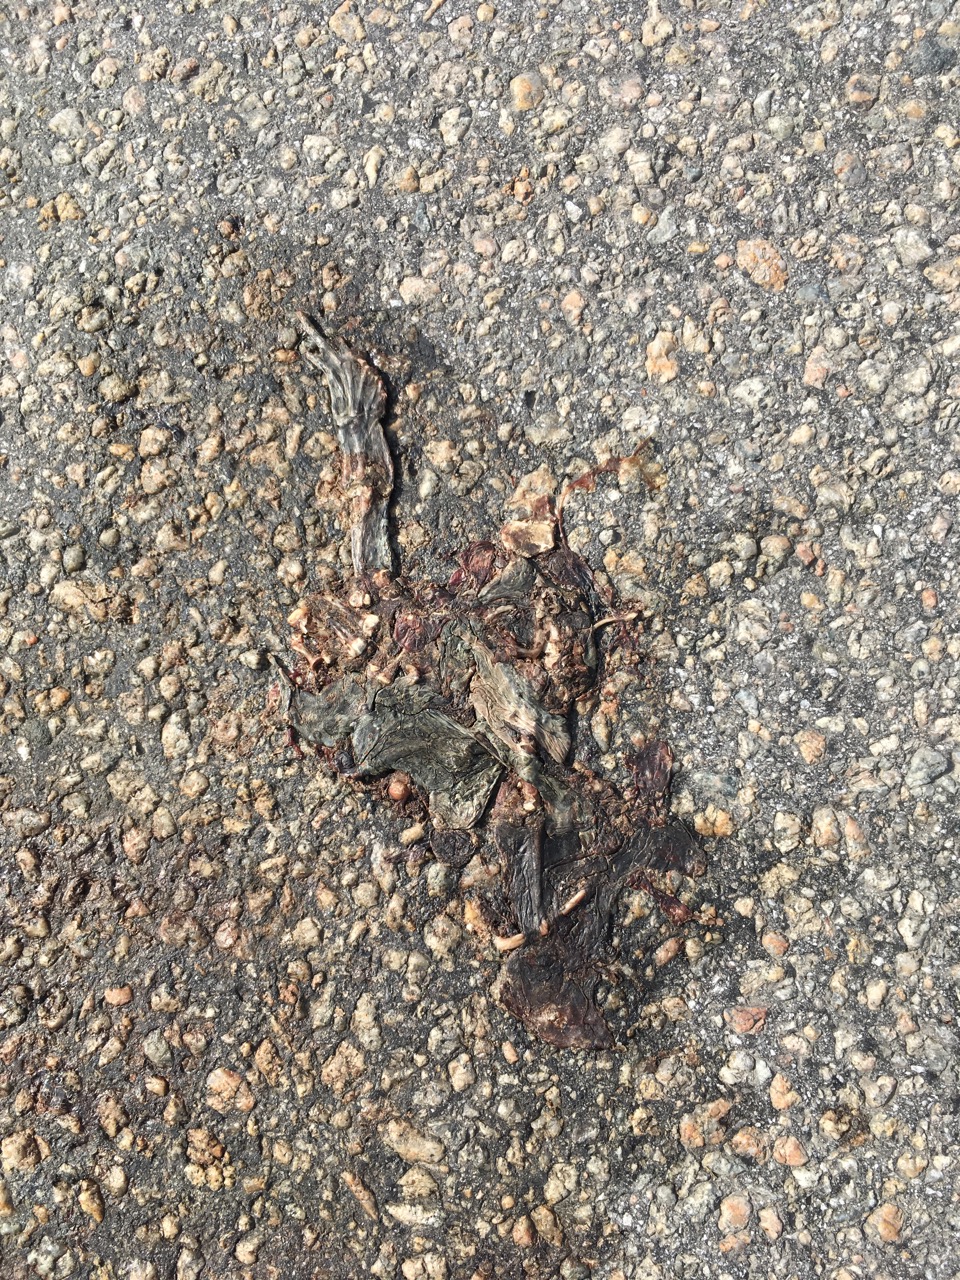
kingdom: Animalia
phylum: Chordata
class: Amphibia
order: Anura
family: Bufonidae
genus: Bufotes
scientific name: Bufotes viridis
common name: European green toad
